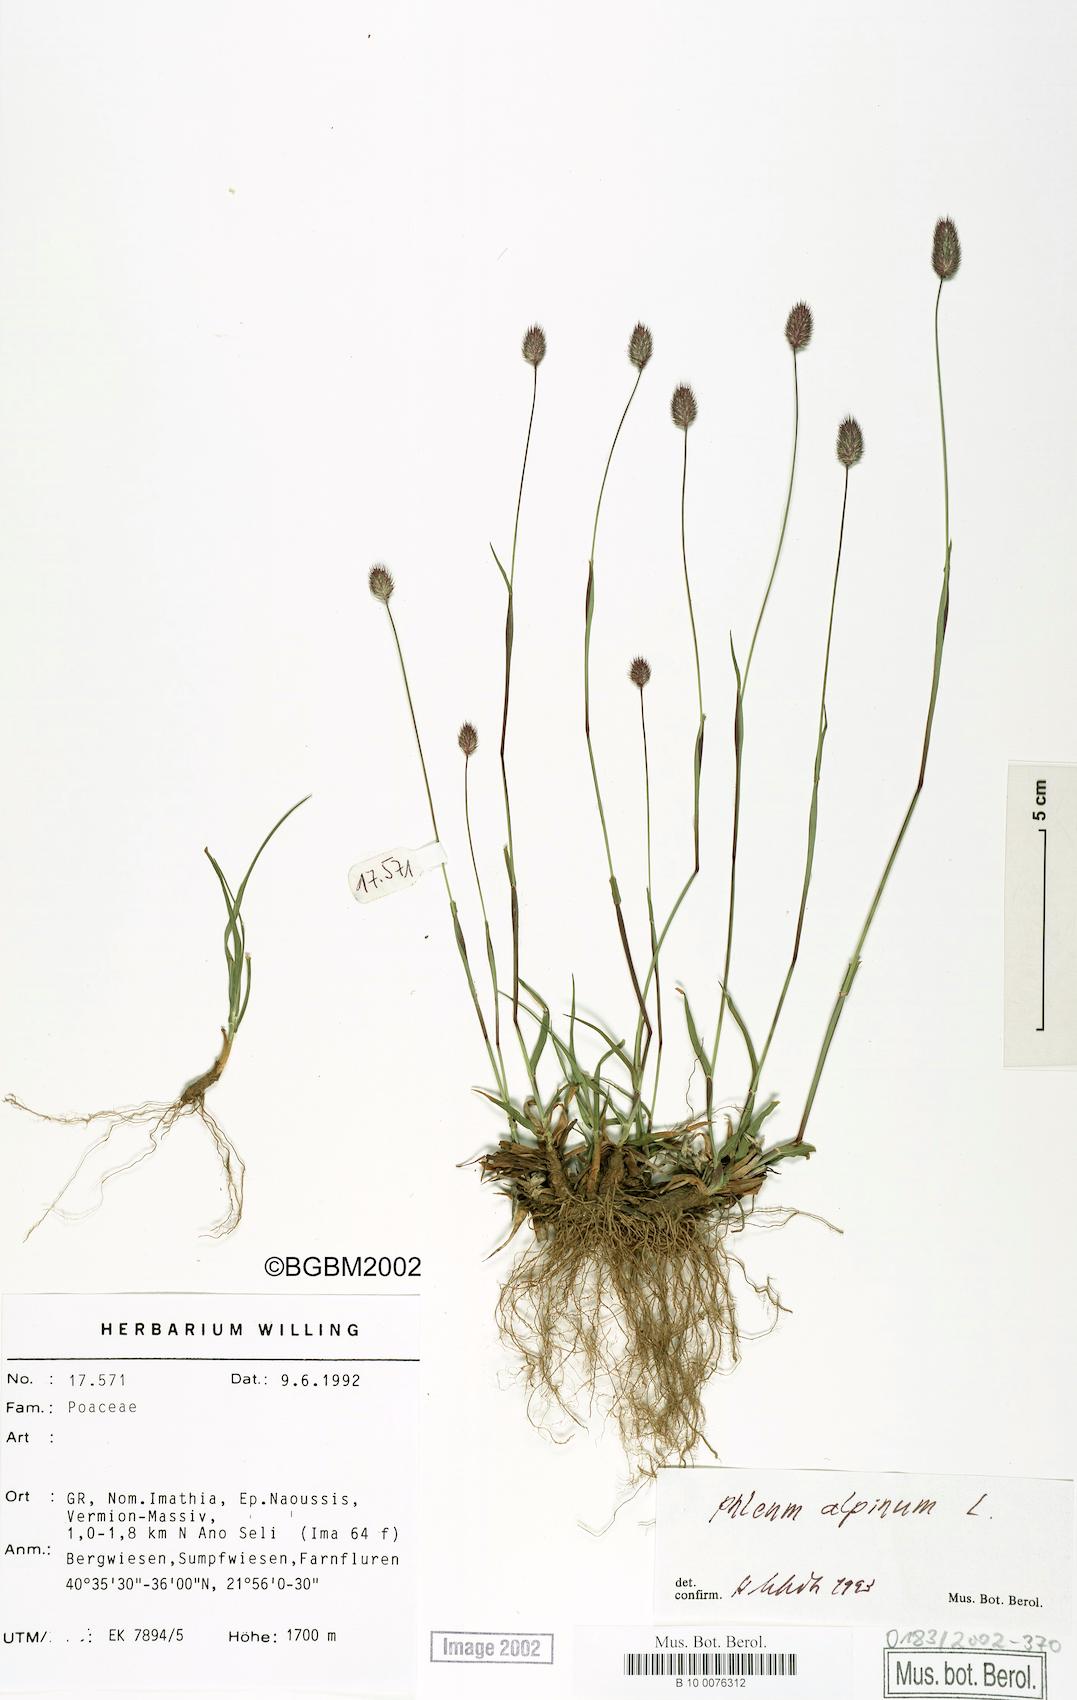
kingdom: Plantae
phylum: Tracheophyta
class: Liliopsida
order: Poales
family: Poaceae
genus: Phleum
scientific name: Phleum alpinum
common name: Alpine cat's-tail
